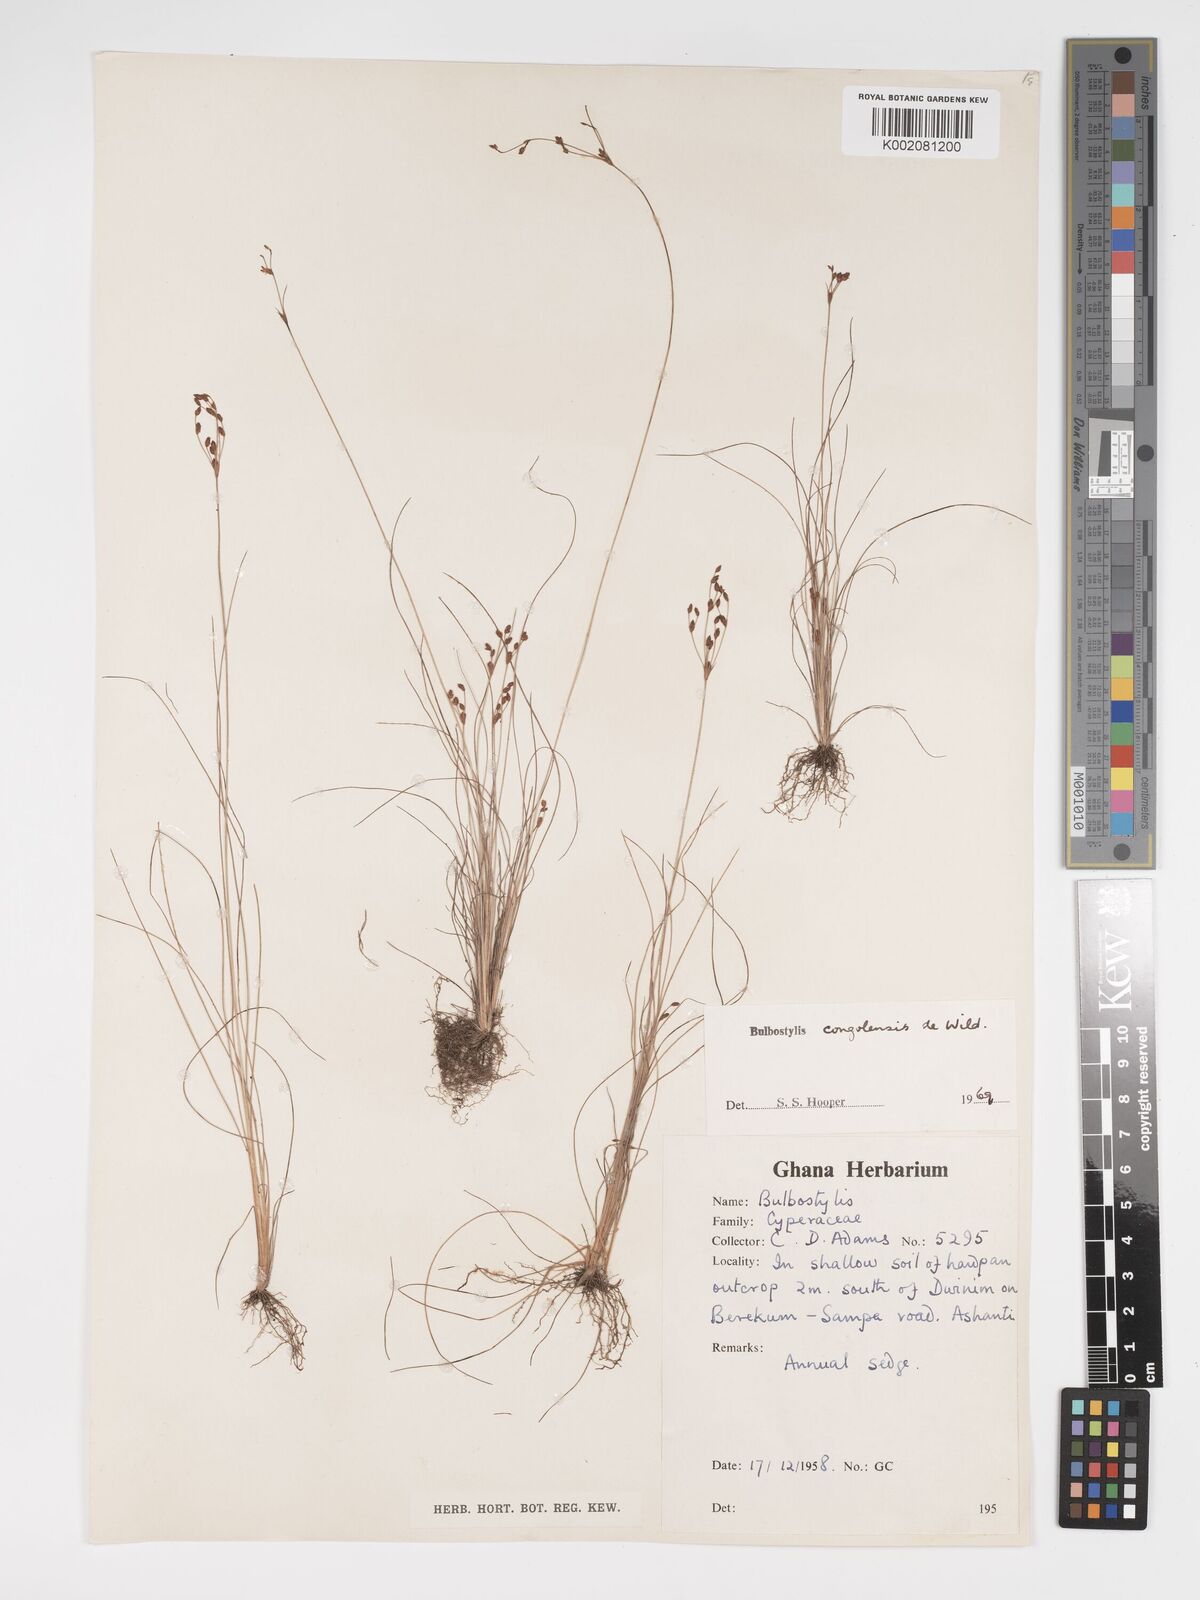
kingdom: Plantae
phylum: Tracheophyta
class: Liliopsida
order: Poales
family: Cyperaceae
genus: Bulbostylis
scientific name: Bulbostylis congolensis
